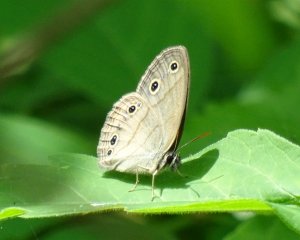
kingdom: Animalia
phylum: Arthropoda
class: Insecta
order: Lepidoptera
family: Nymphalidae
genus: Euptychia
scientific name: Euptychia cymela
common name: Little Wood Satyr
